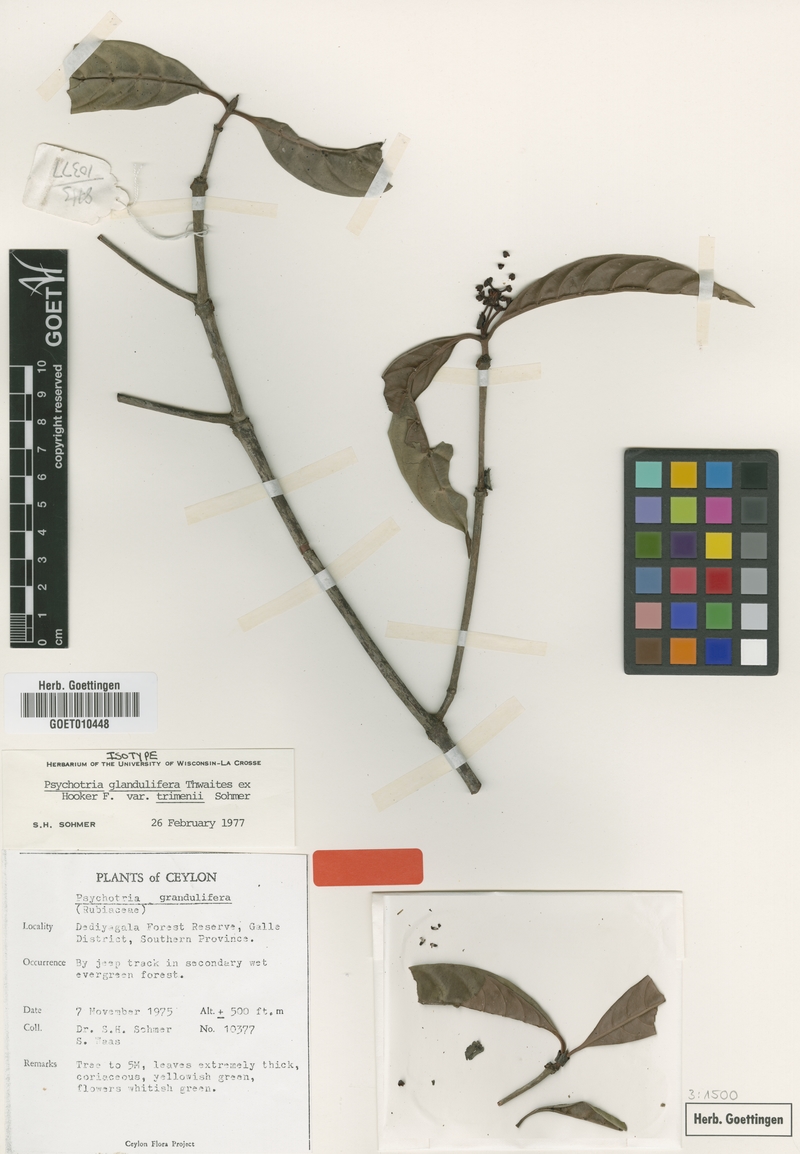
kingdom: Plantae
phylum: Tracheophyta
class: Magnoliopsida
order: Gentianales
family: Rubiaceae
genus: Psychotria
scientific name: Psychotria glandulifera
